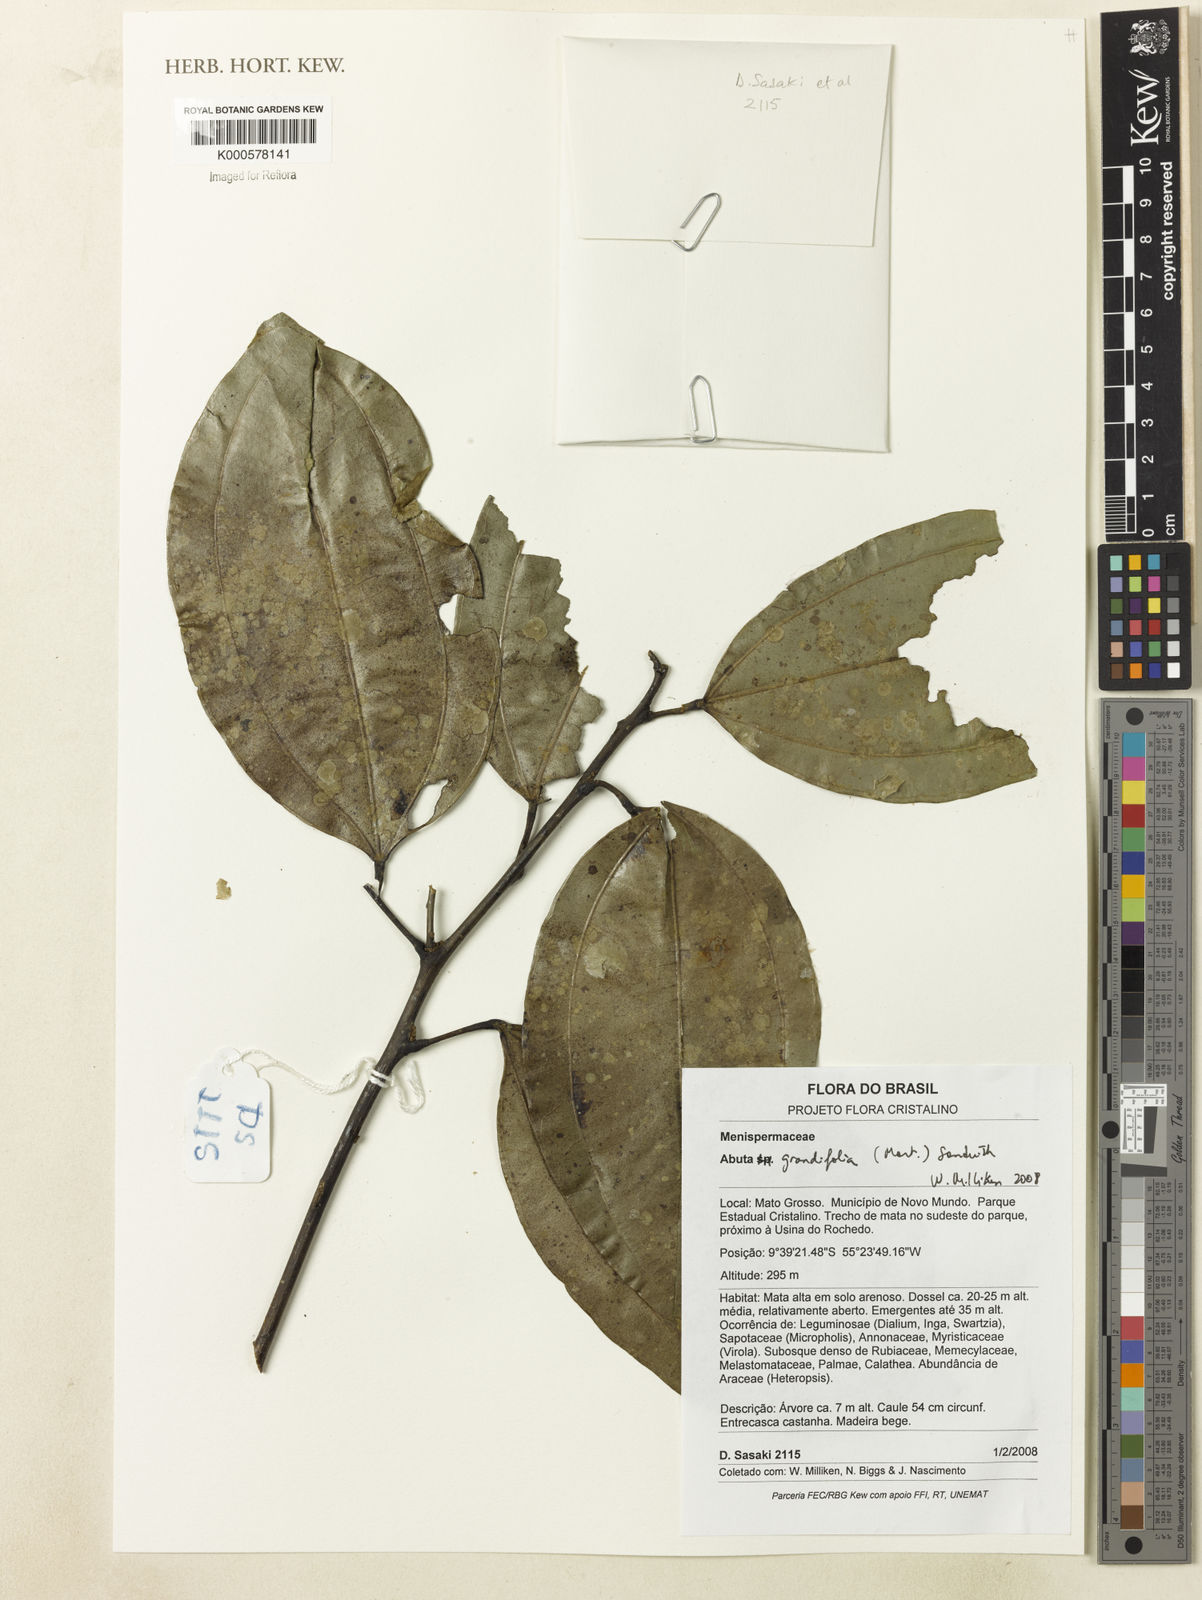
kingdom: Plantae
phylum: Tracheophyta
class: Magnoliopsida
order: Ranunculales
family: Menispermaceae
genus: Abuta
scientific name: Abuta grandifolia
